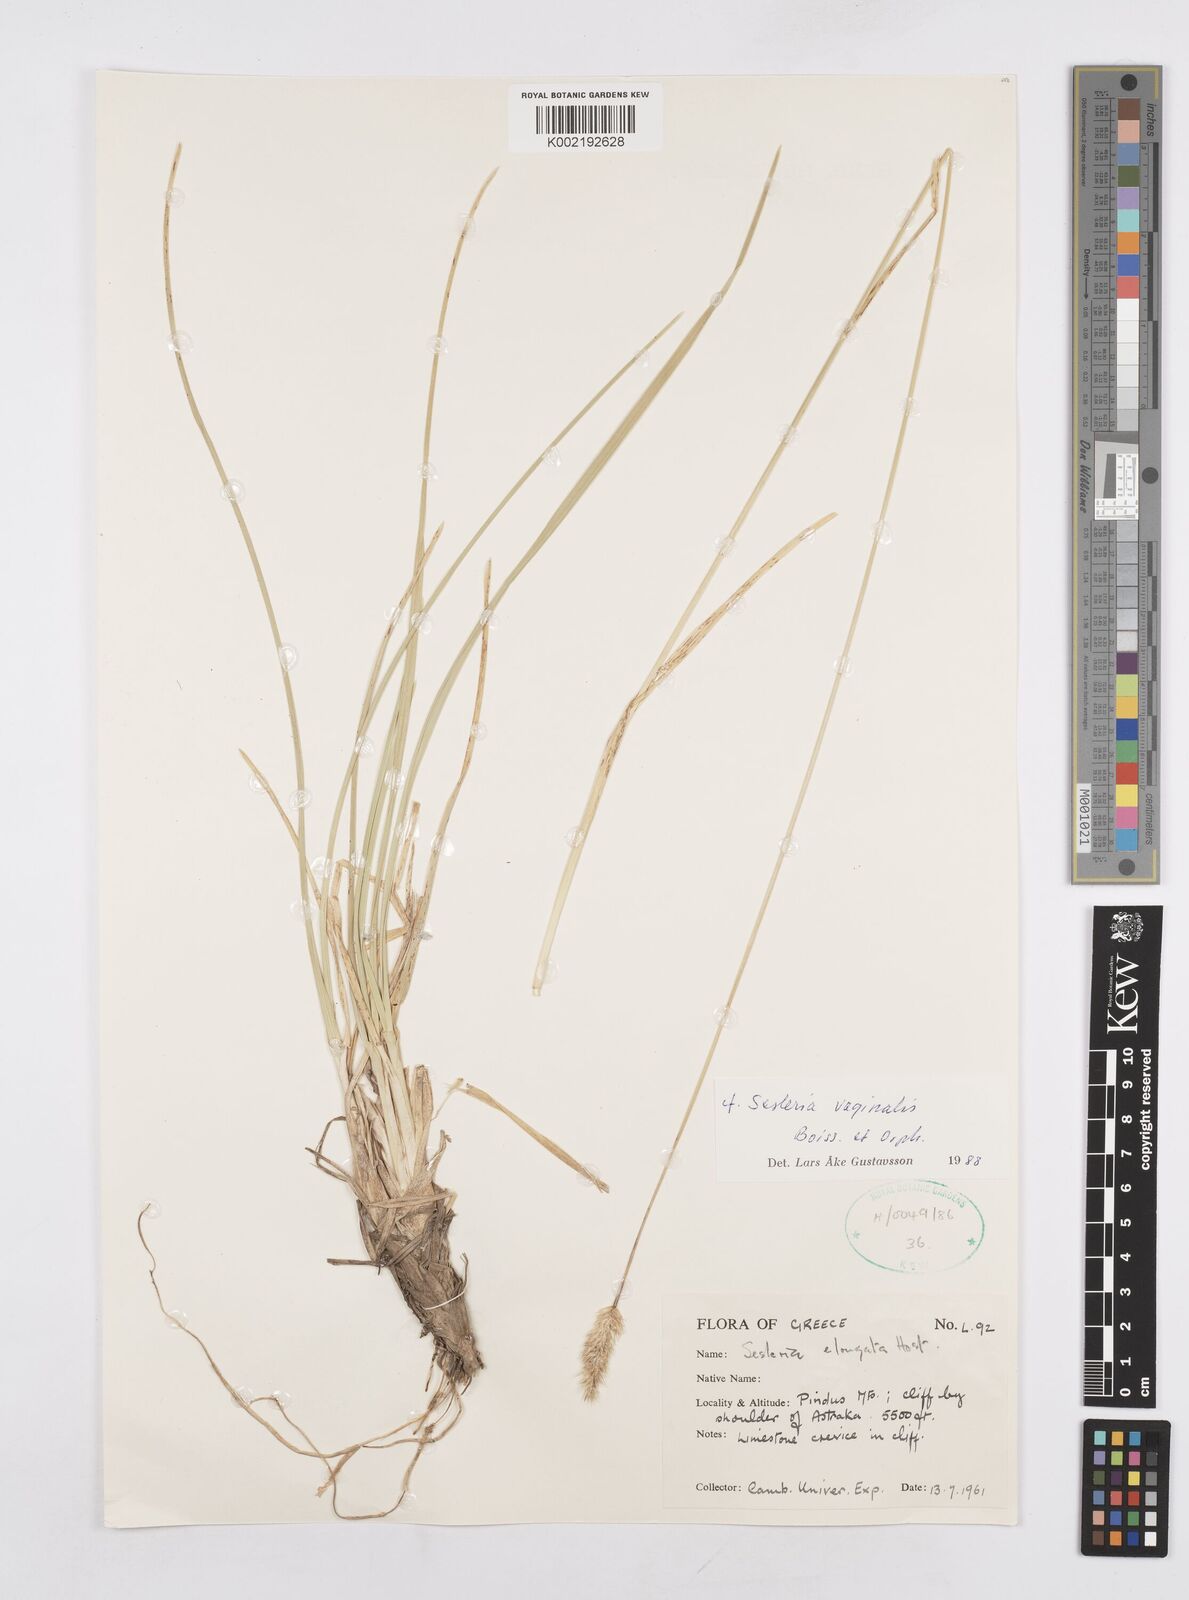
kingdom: Plantae
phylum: Tracheophyta
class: Liliopsida
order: Poales
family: Poaceae
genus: Sesleria
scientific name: Sesleria vaginalis
